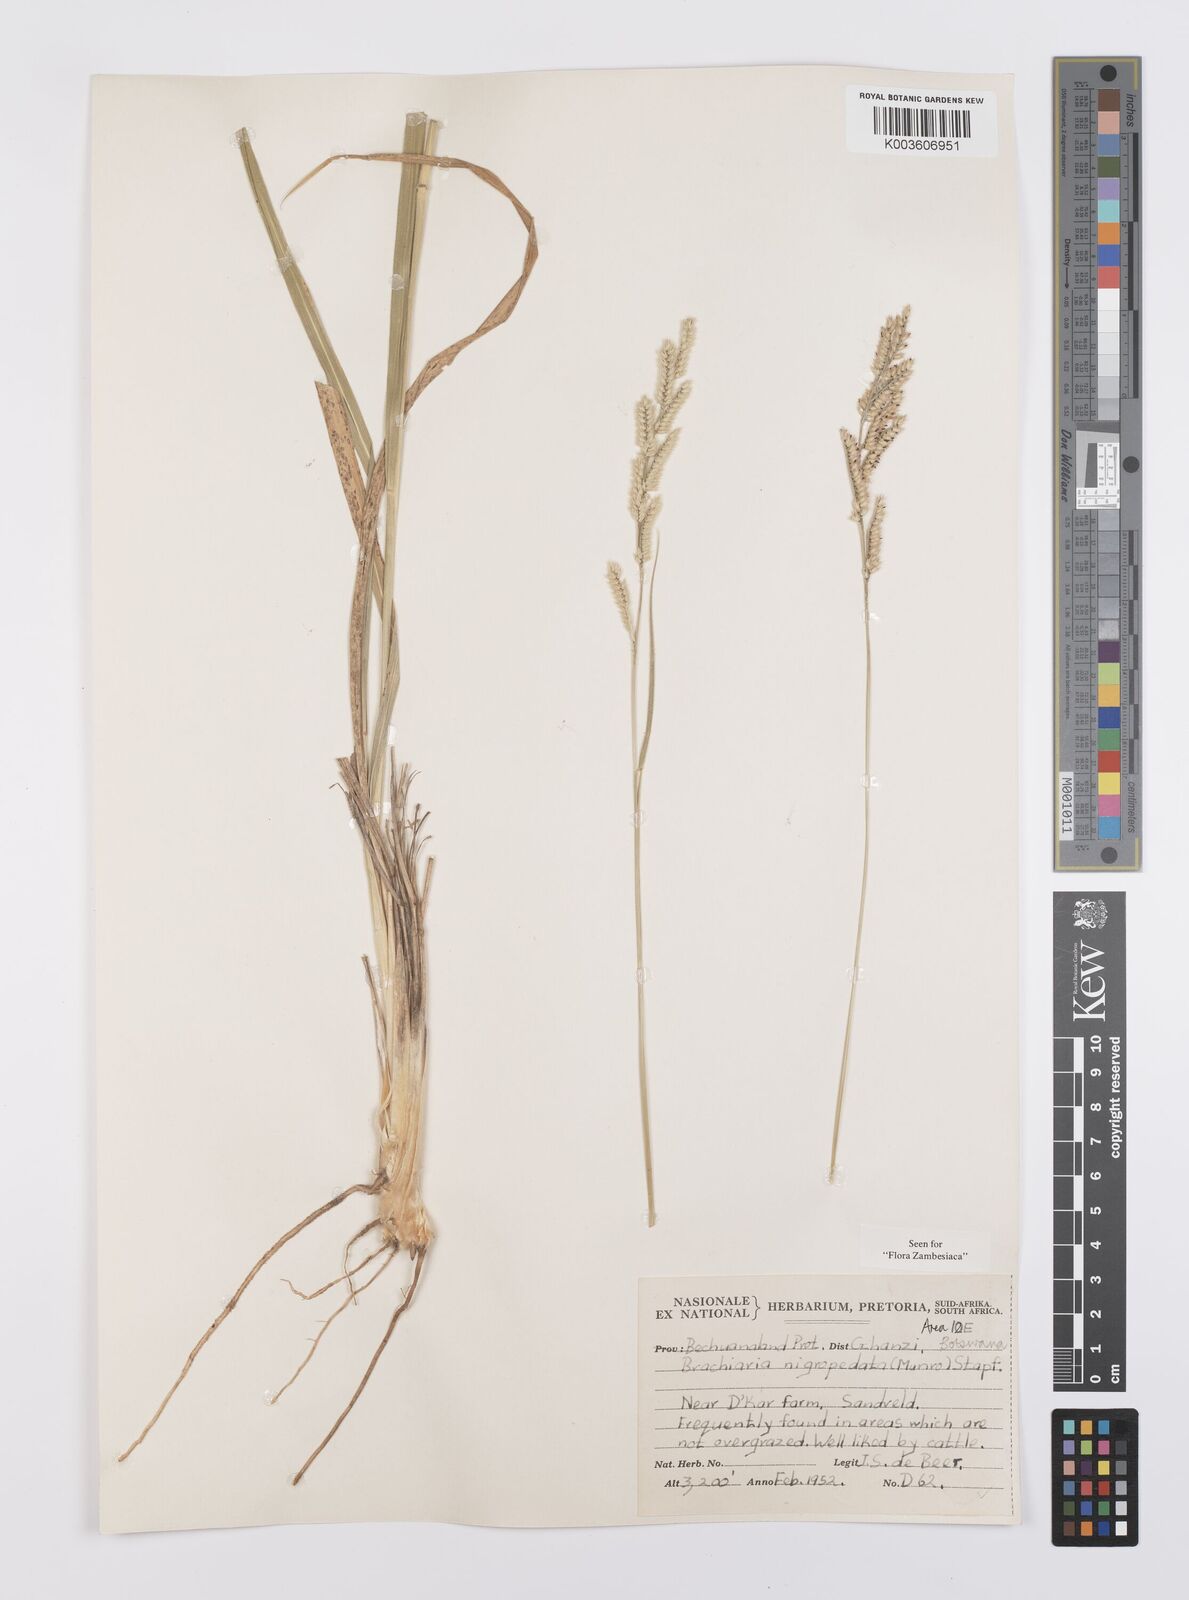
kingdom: Plantae
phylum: Tracheophyta
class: Liliopsida
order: Poales
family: Poaceae
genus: Urochloa
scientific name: Urochloa nigropedata
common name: Spotted signal grass
